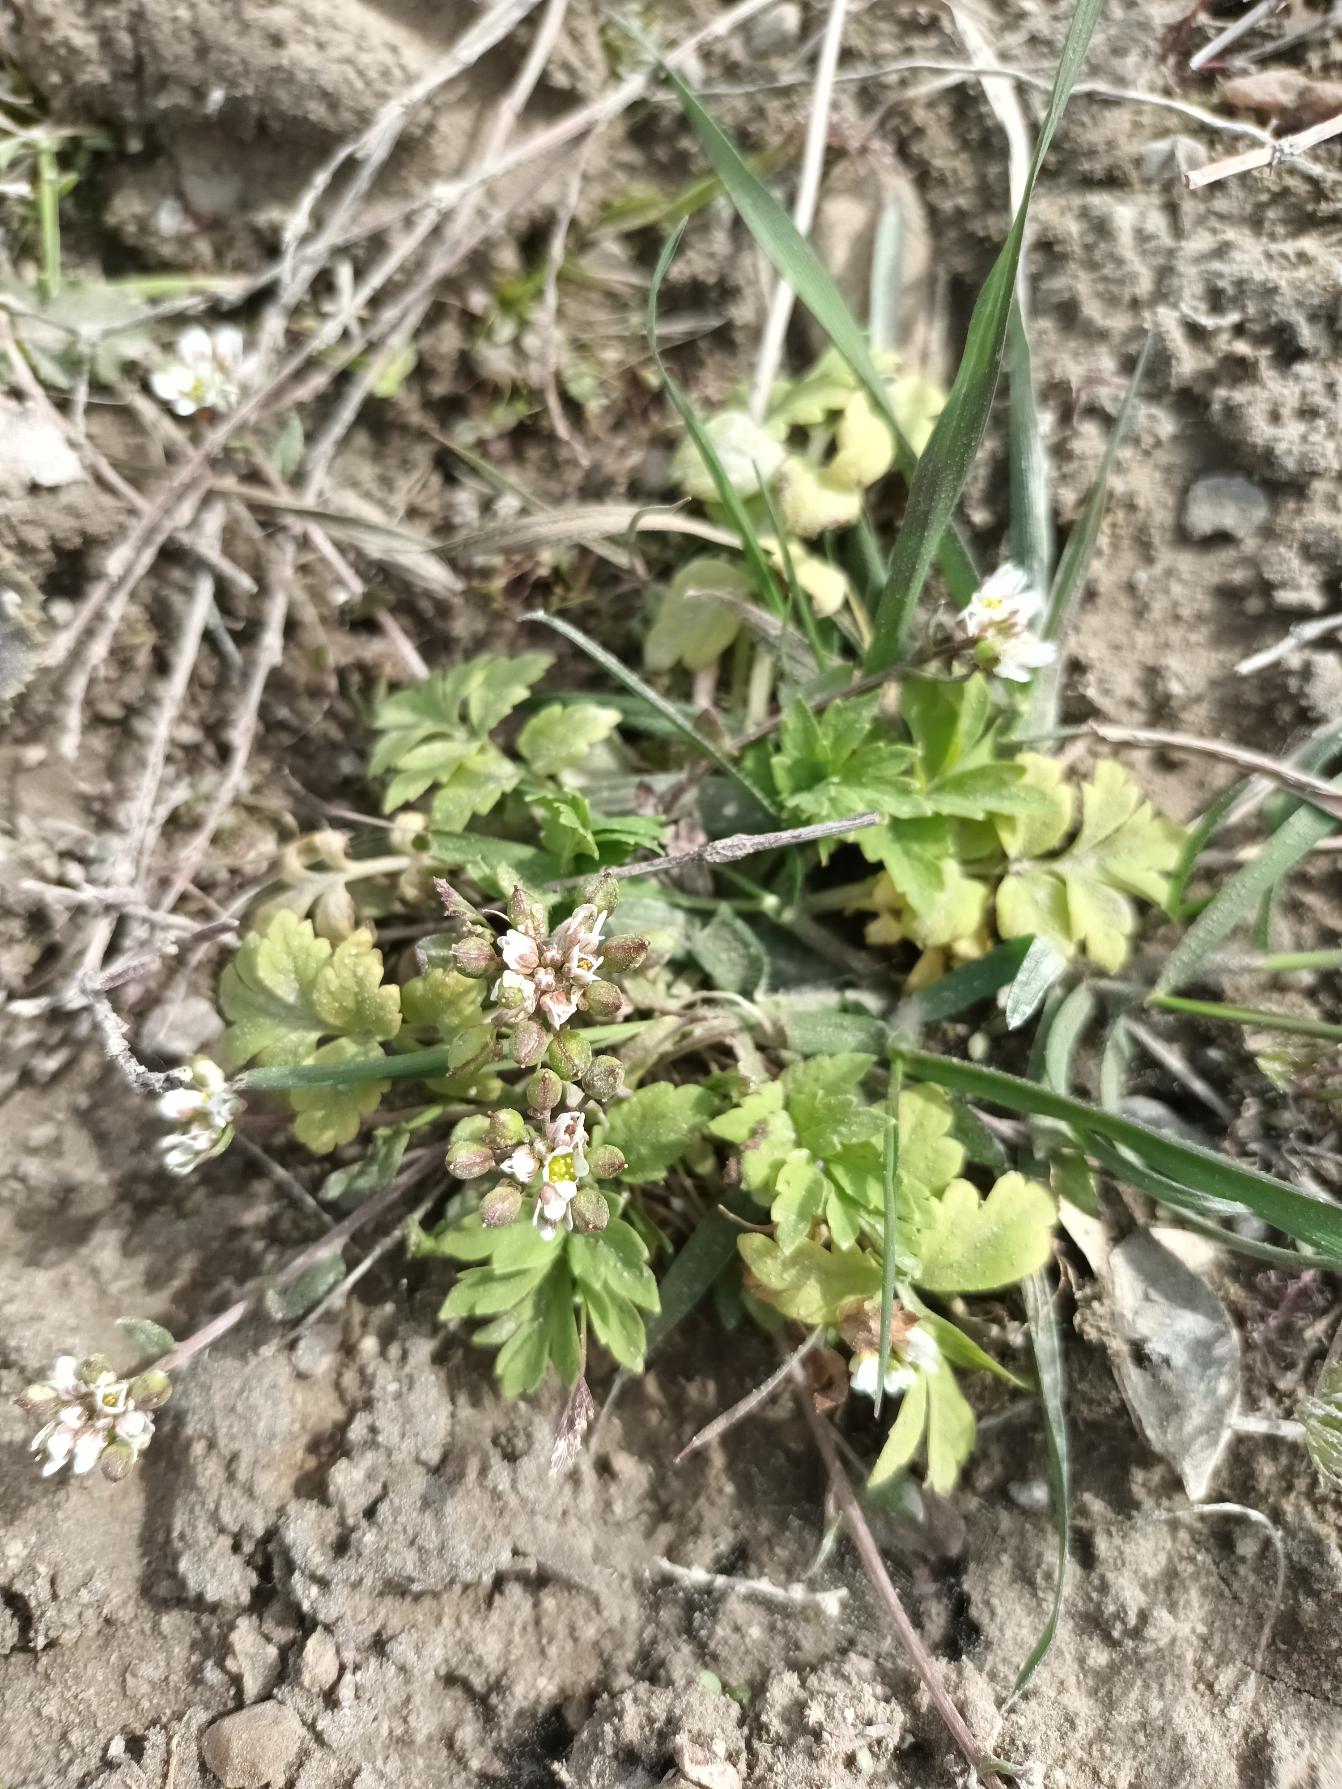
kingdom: Plantae
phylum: Tracheophyta
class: Magnoliopsida
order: Brassicales
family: Brassicaceae
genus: Cochlearia
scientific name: Cochlearia danica
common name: Dansk kokleare
